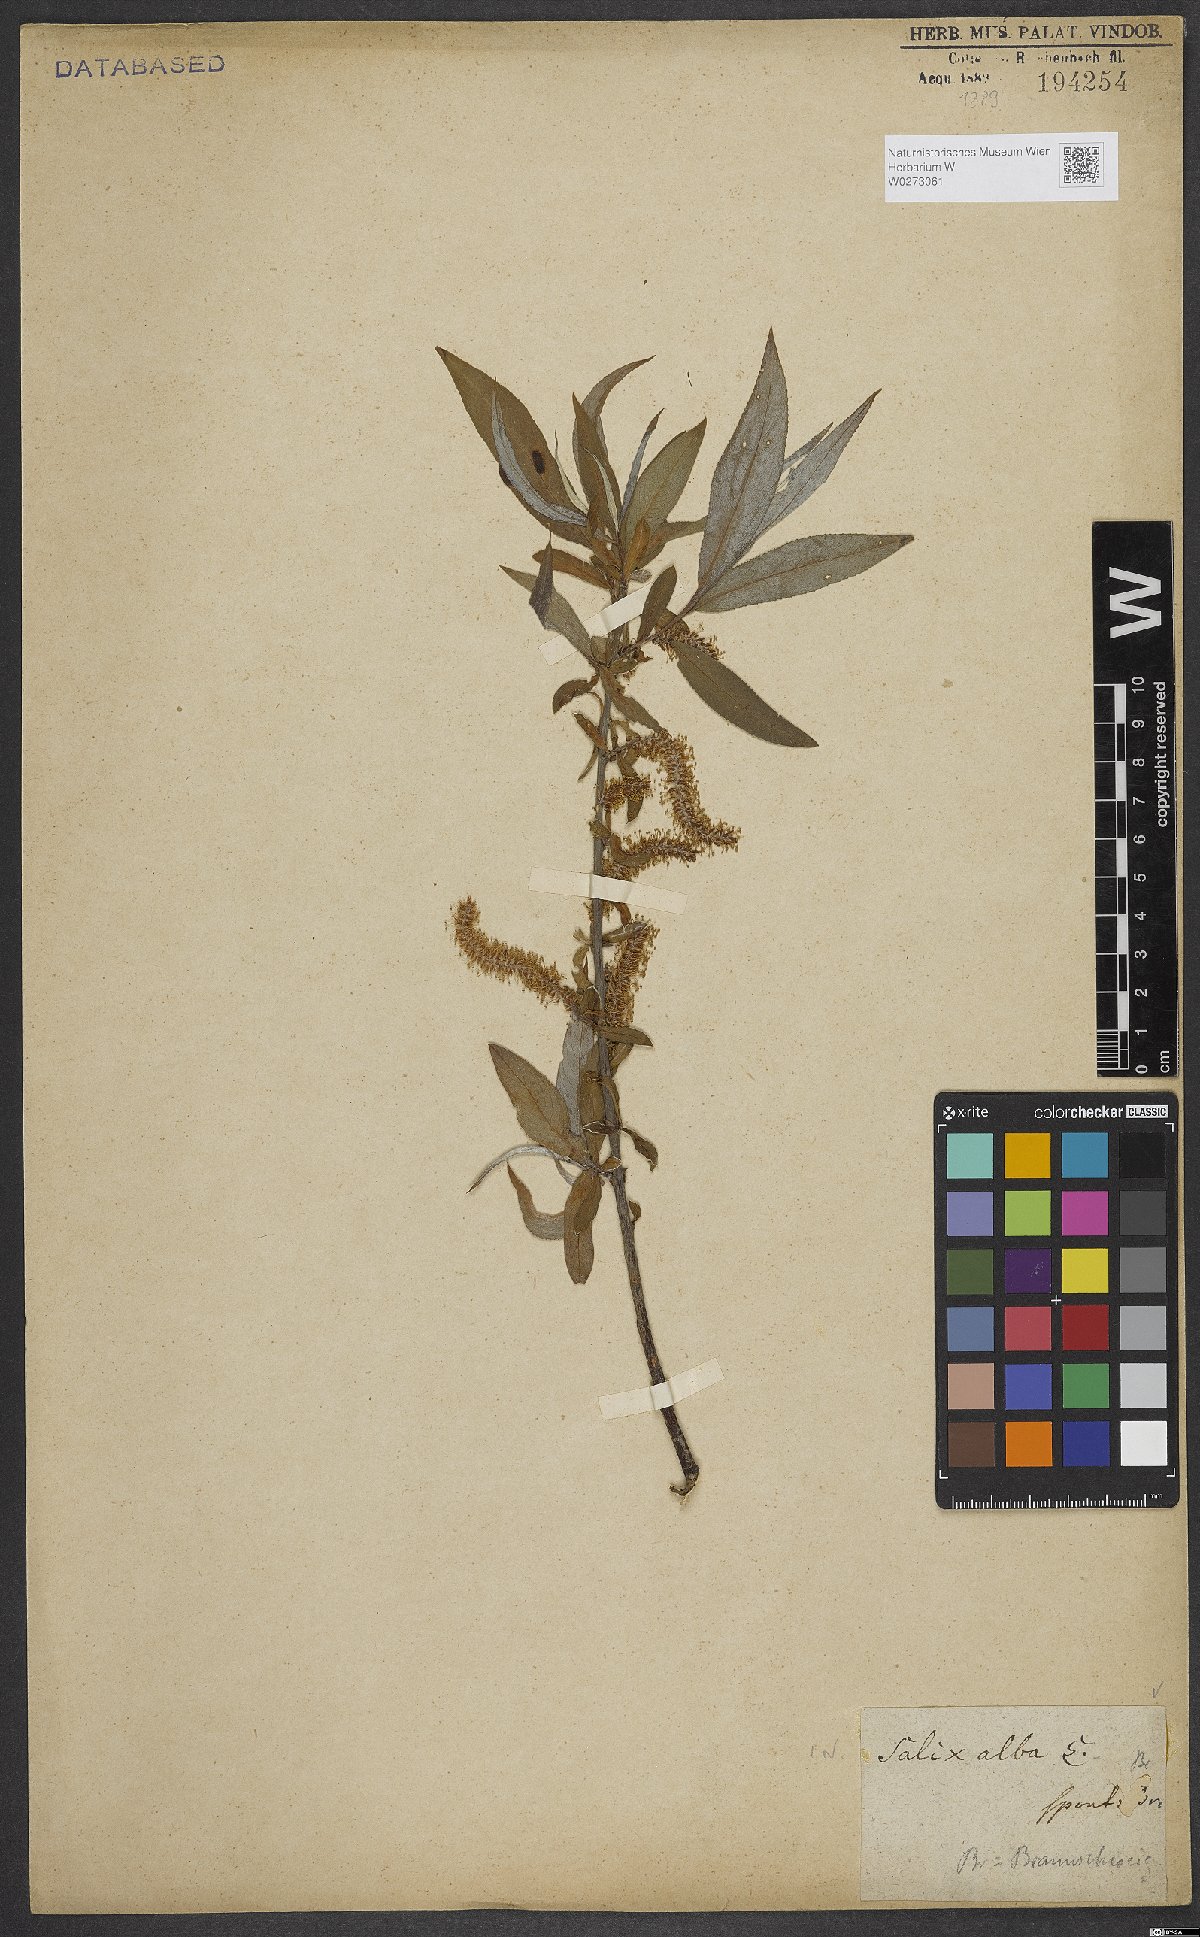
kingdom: Plantae
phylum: Tracheophyta
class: Magnoliopsida
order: Malpighiales
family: Salicaceae
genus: Salix
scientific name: Salix alba
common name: White willow
